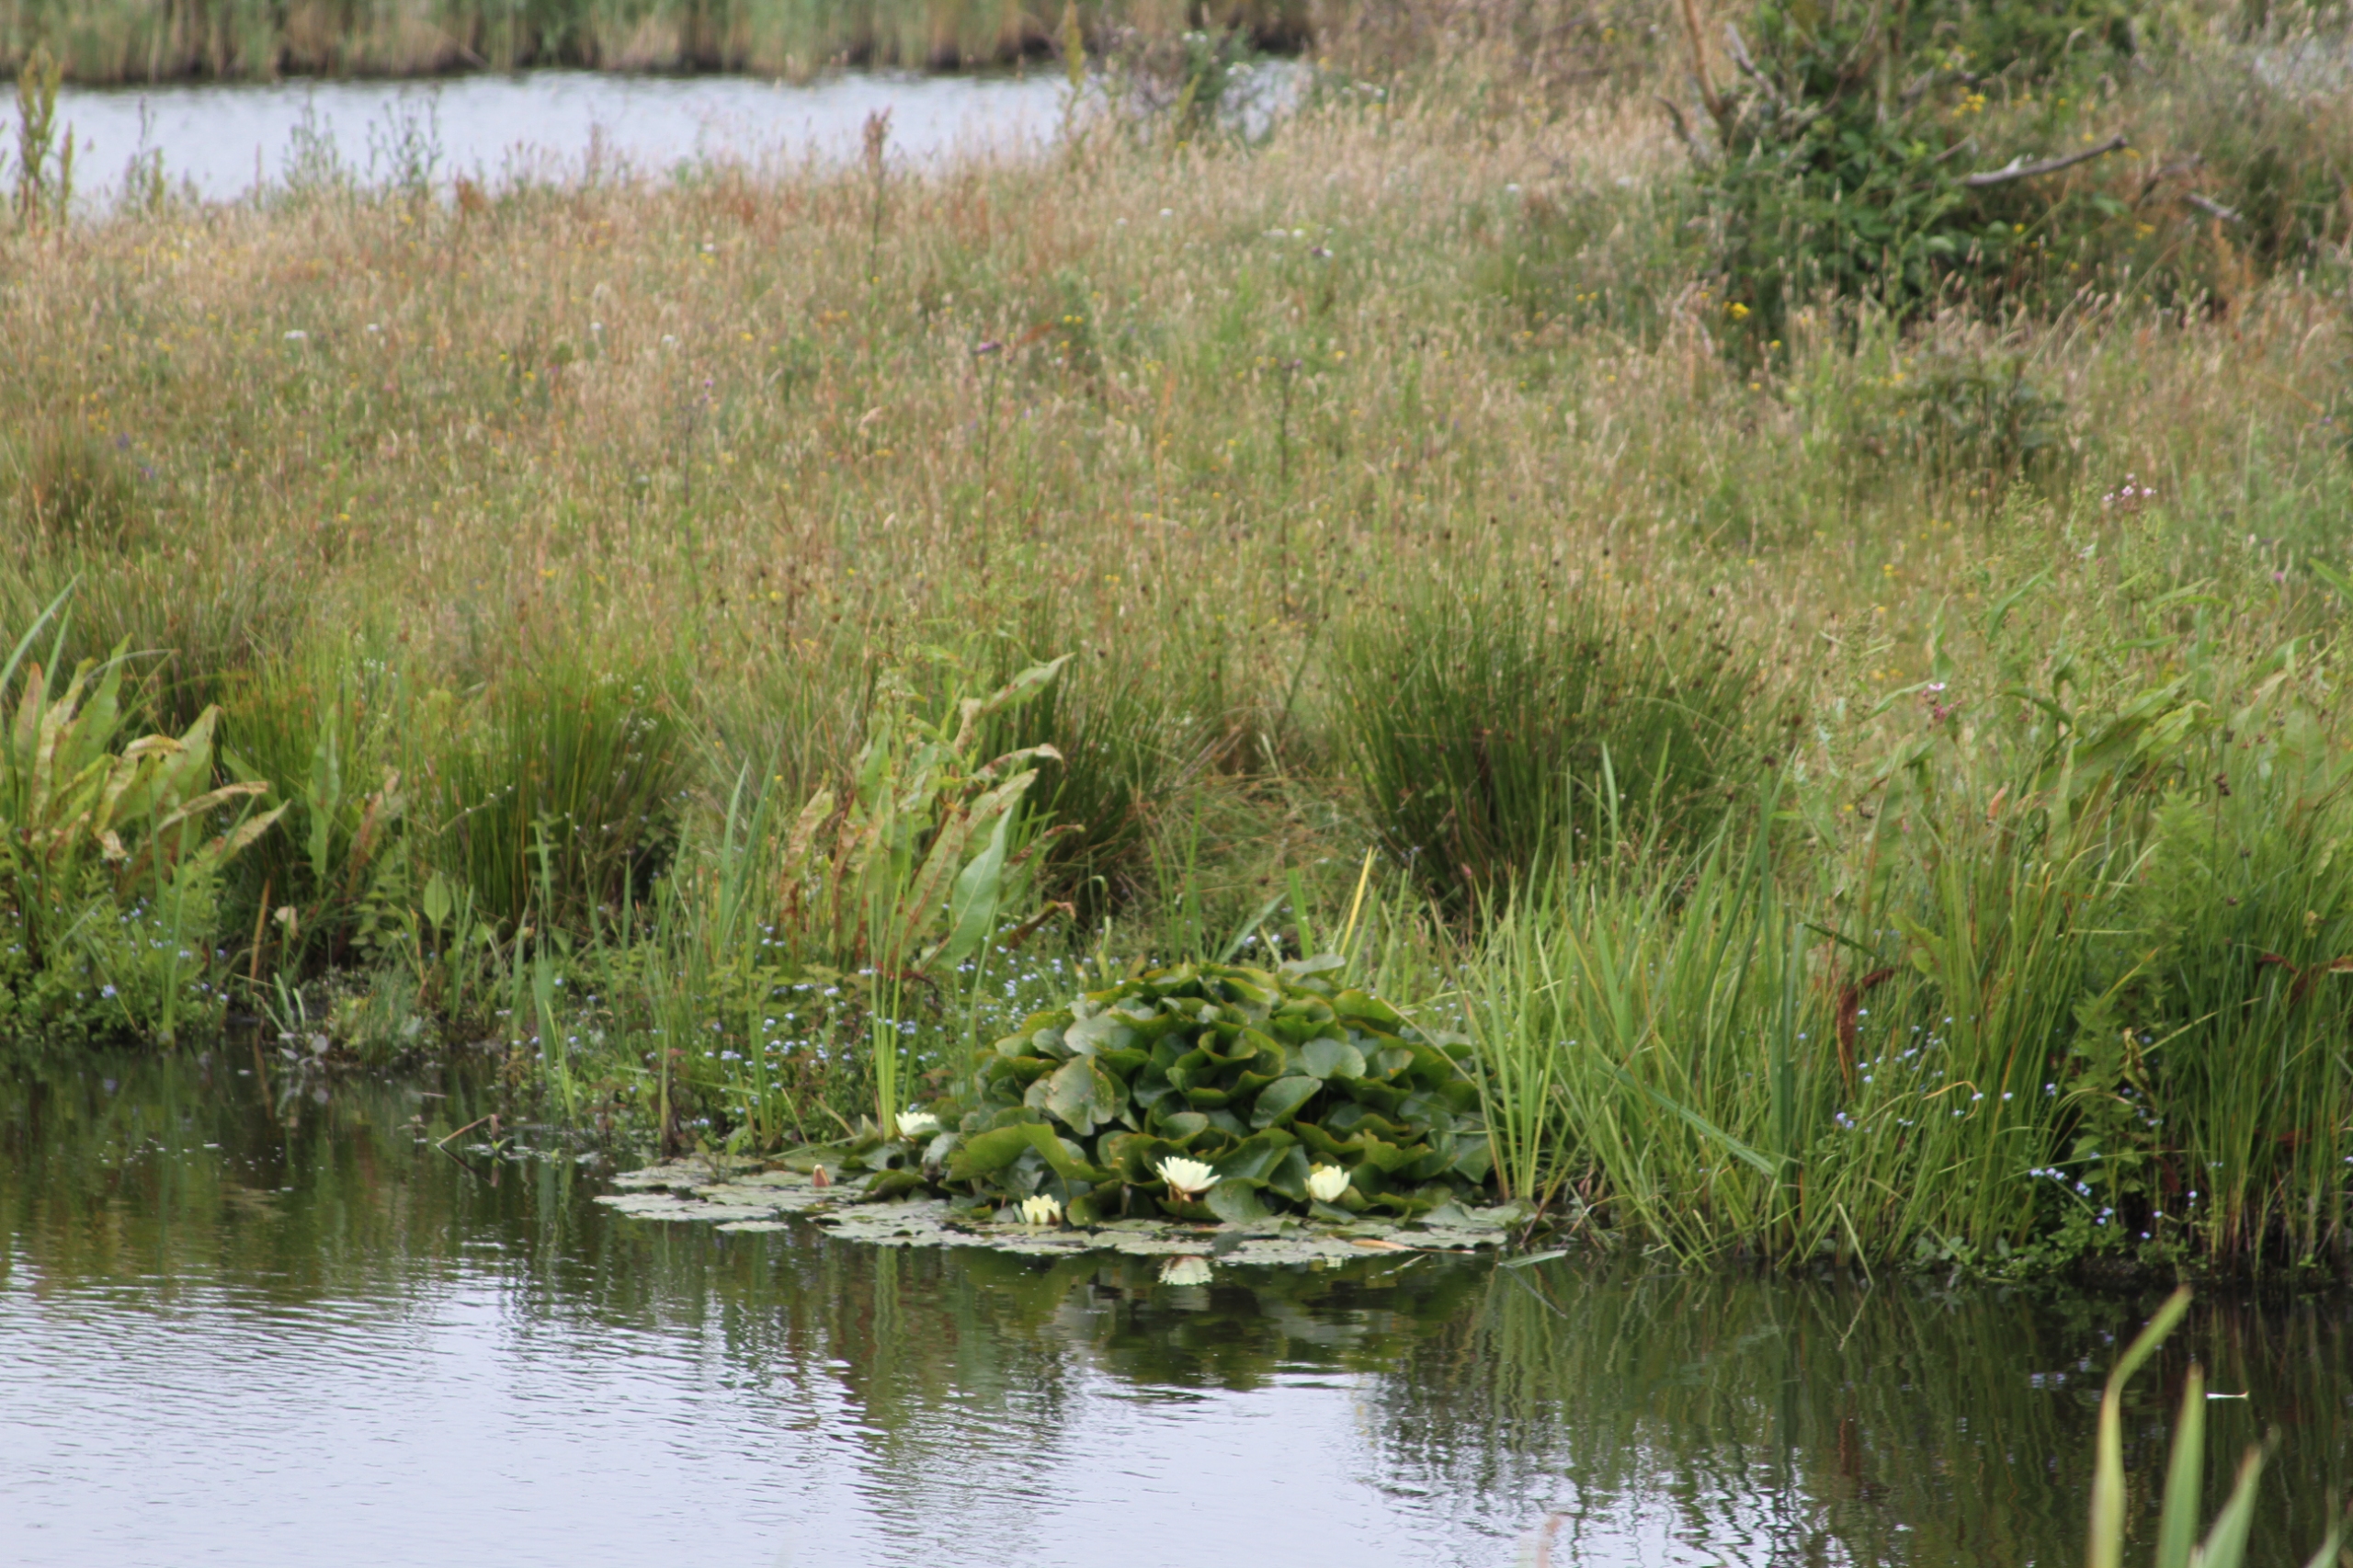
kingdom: Plantae
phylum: Tracheophyta
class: Magnoliopsida
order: Nymphaeales
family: Nymphaeaceae
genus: Nymphaea
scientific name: Nymphaea alba
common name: Hvid åkande
